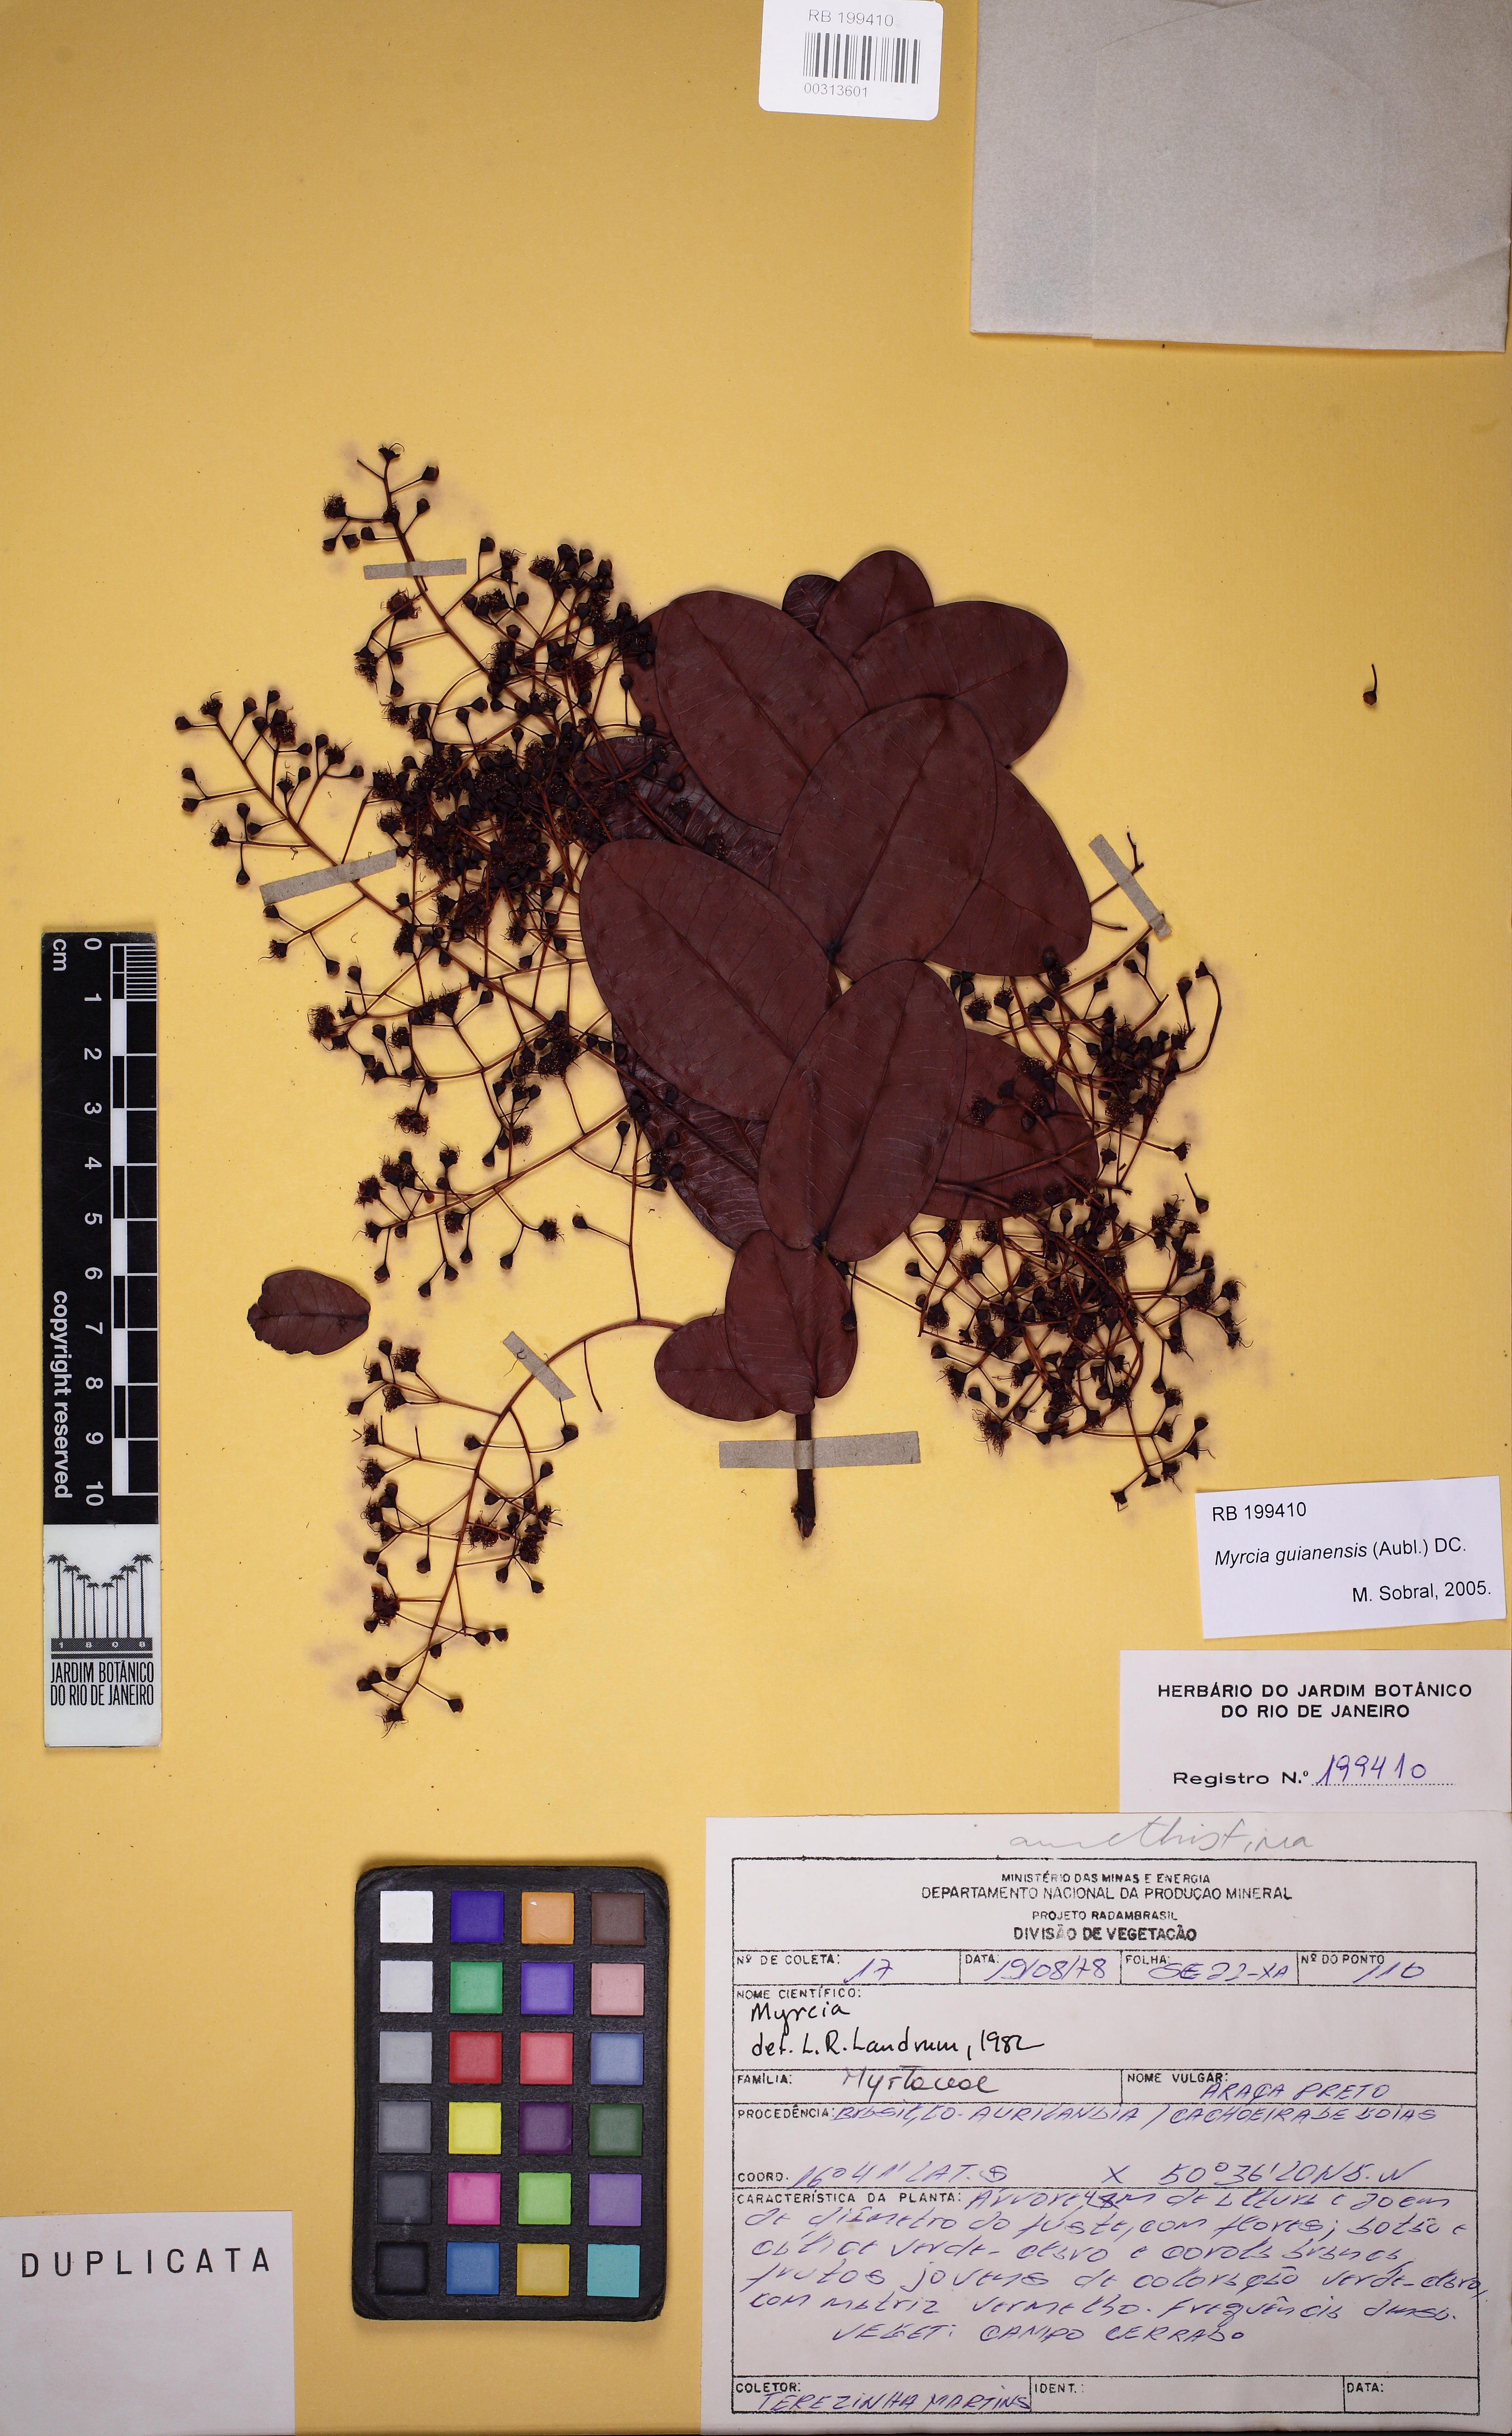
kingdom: Plantae
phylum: Tracheophyta
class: Magnoliopsida
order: Myrtales
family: Myrtaceae
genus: Myrcia
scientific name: Myrcia variabilis
